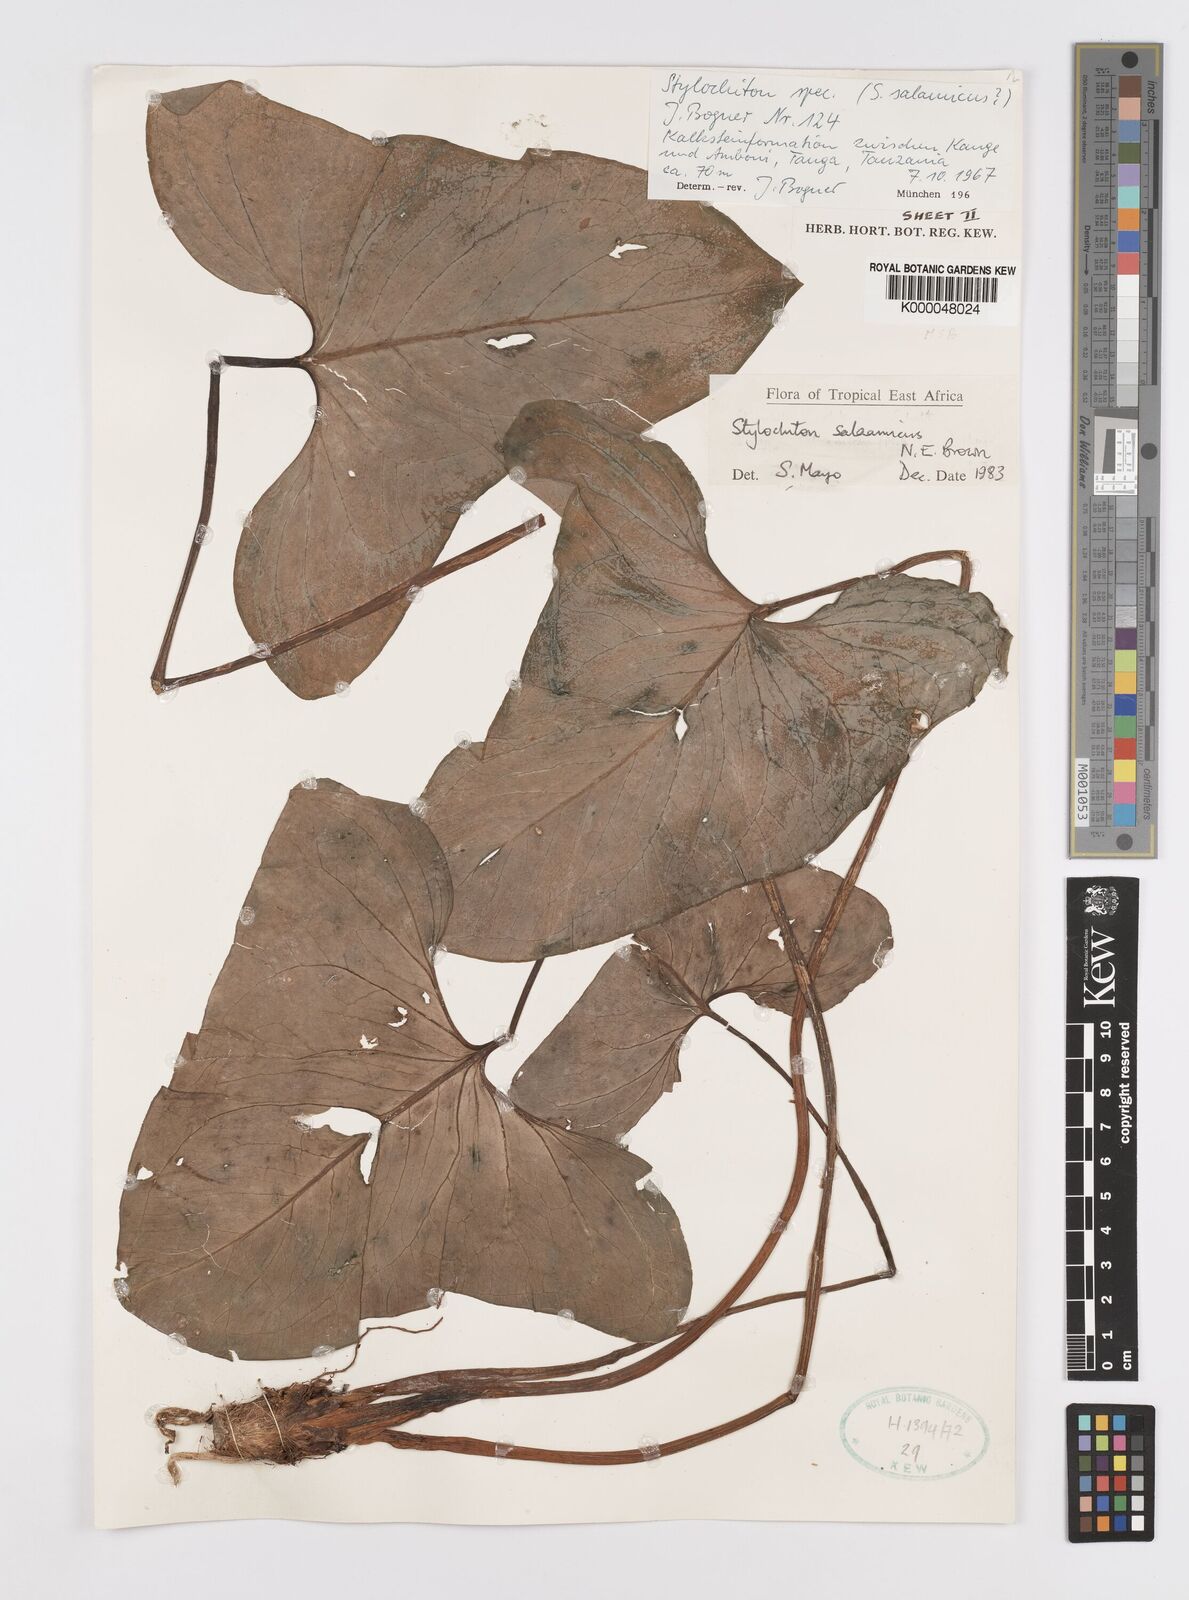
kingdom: Plantae
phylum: Tracheophyta
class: Liliopsida
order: Alismatales
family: Araceae
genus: Stylochaeton
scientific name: Stylochaeton salaamicum
